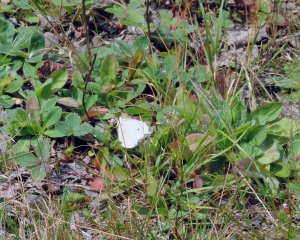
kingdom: Animalia
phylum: Arthropoda
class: Insecta
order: Lepidoptera
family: Pieridae
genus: Pieris
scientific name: Pieris rapae
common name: Cabbage White
